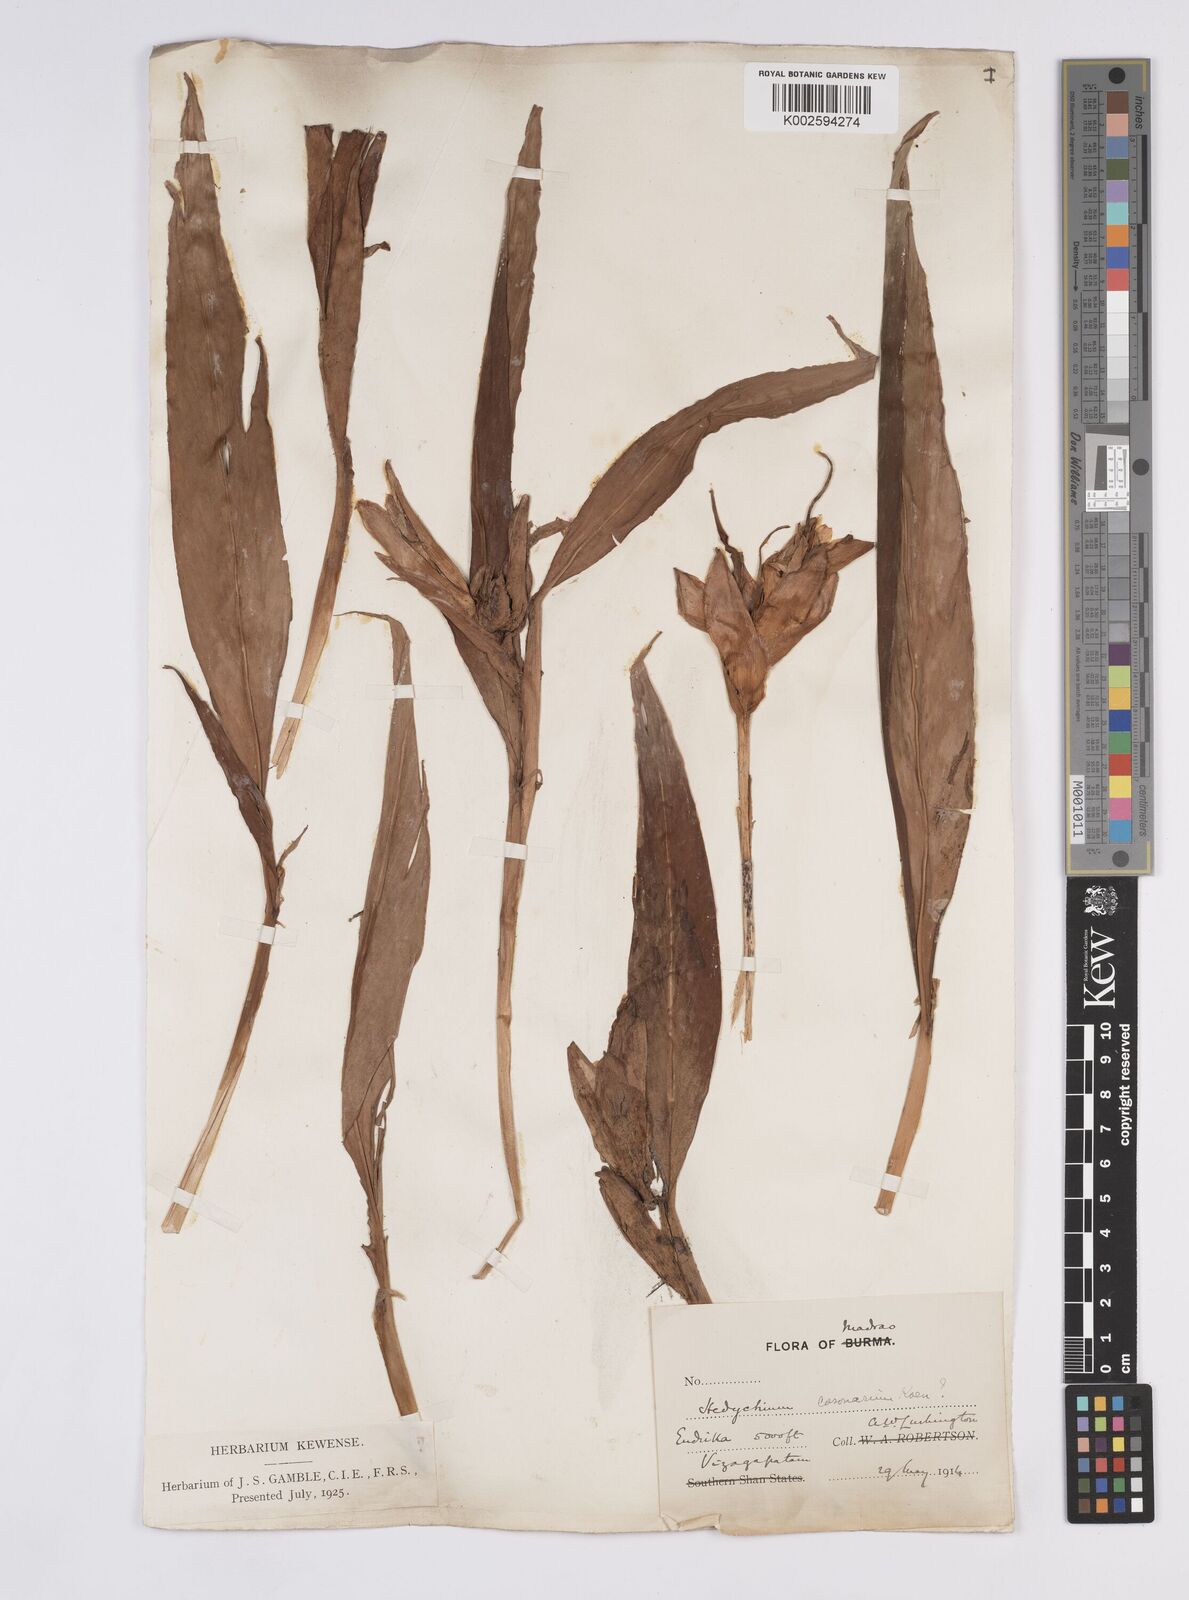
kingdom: Plantae
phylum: Tracheophyta
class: Liliopsida
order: Zingiberales
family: Zingiberaceae
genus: Hedychium
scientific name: Hedychium coronarium
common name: White garland-lily
